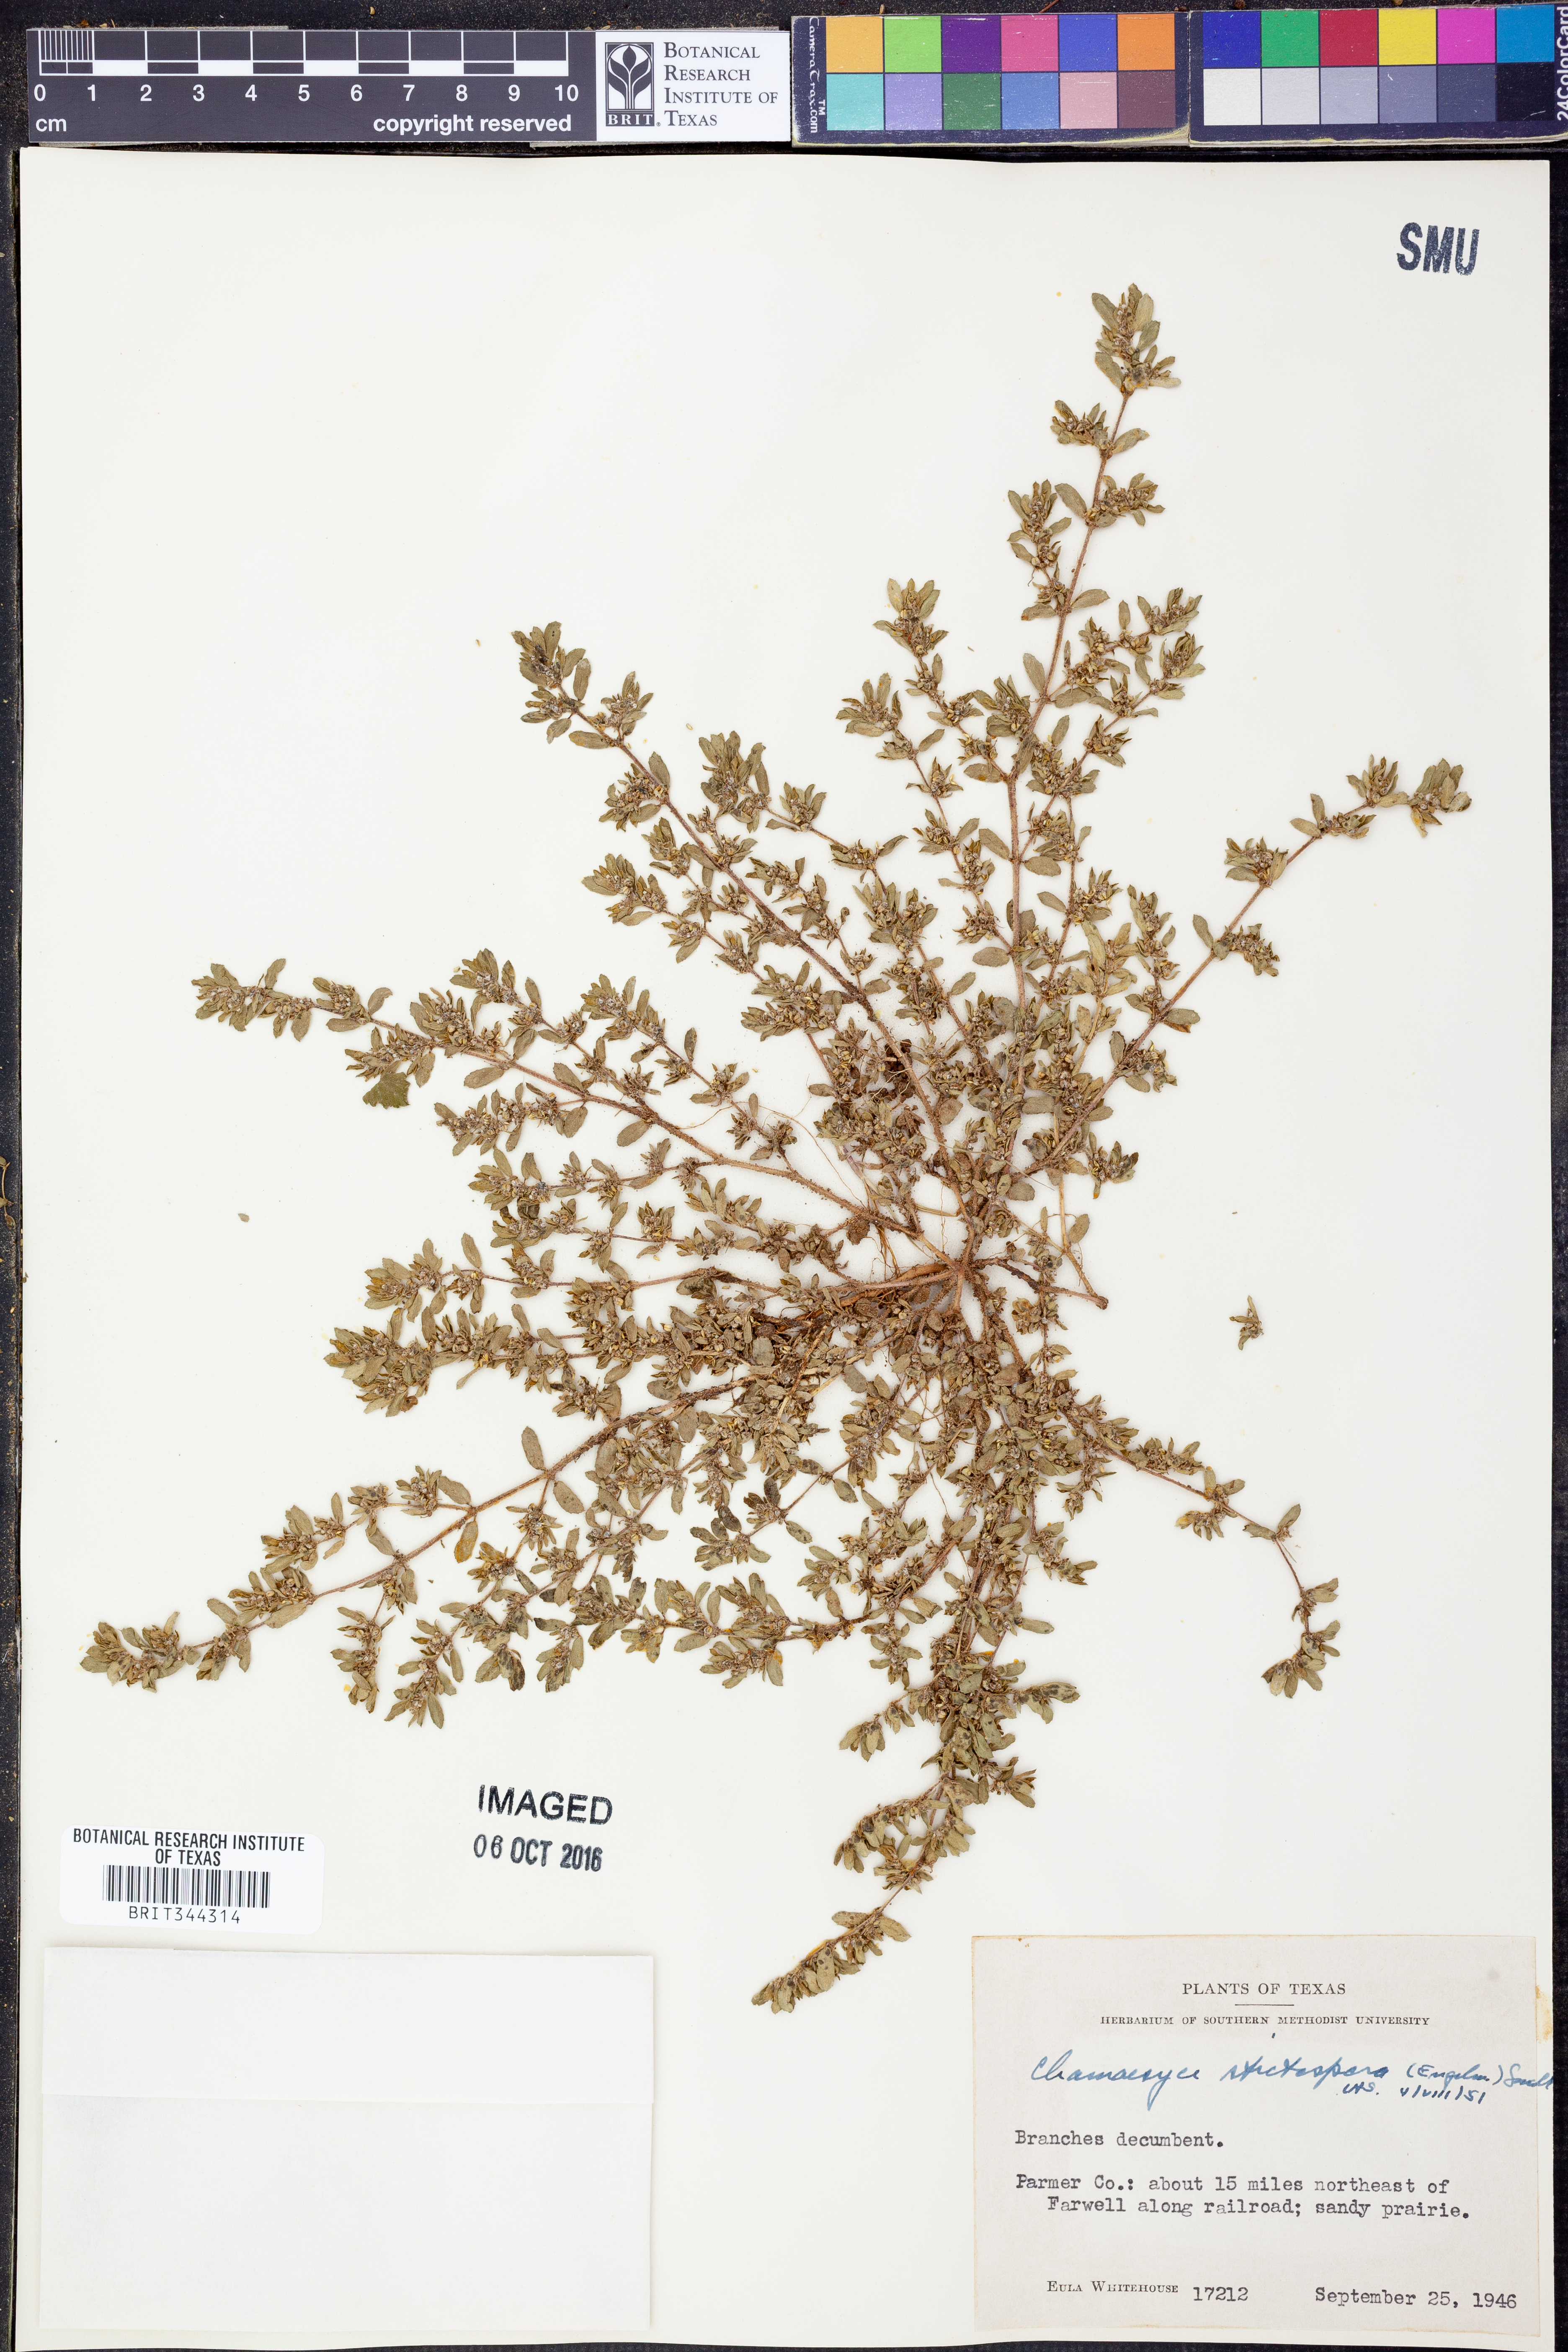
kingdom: Plantae
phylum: Tracheophyta
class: Magnoliopsida
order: Malpighiales
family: Euphorbiaceae
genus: Euphorbia
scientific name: Euphorbia stictospora
